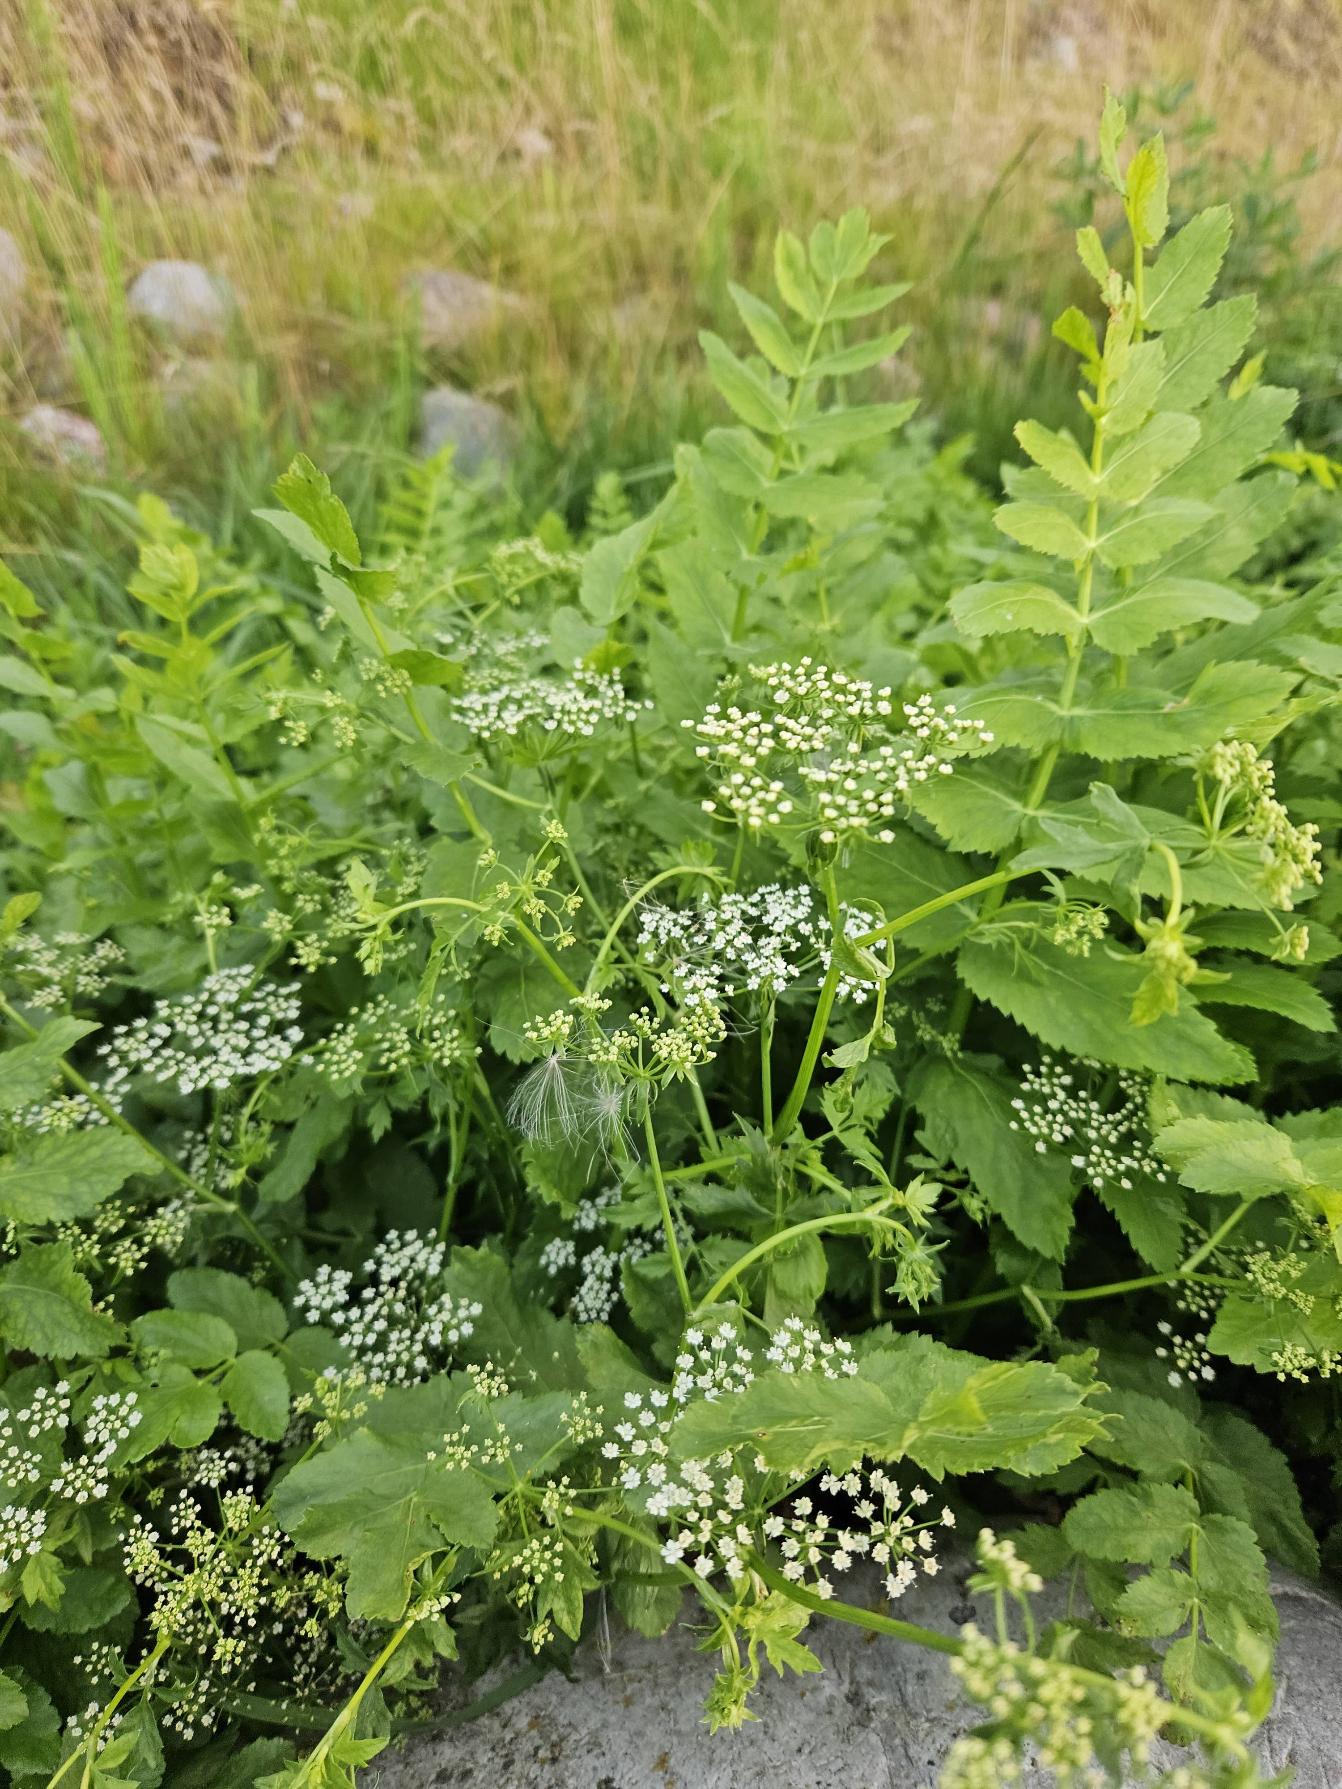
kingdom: Plantae
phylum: Tracheophyta
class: Magnoliopsida
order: Apiales
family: Apiaceae
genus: Berula
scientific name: Berula erecta
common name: Sideskærm
